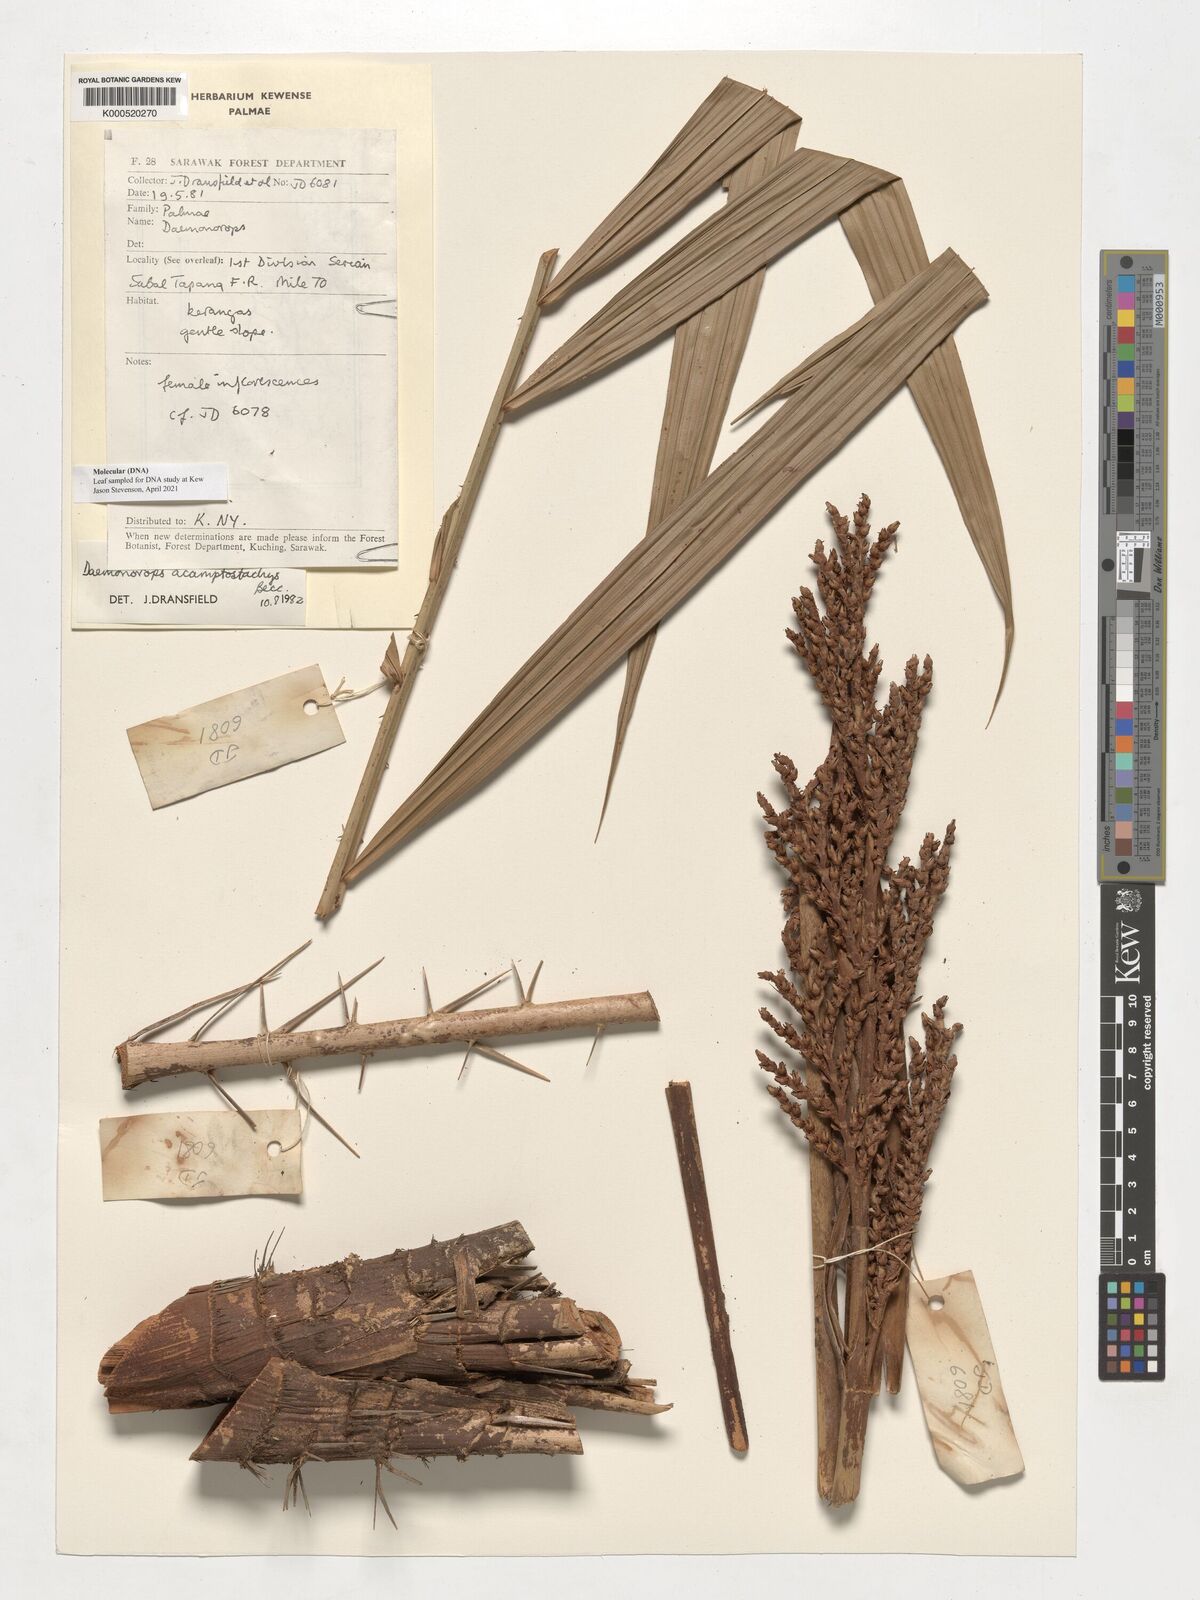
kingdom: Plantae
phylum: Tracheophyta
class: Liliopsida
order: Arecales
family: Arecaceae
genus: Calamus
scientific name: Calamus acamptostachys
